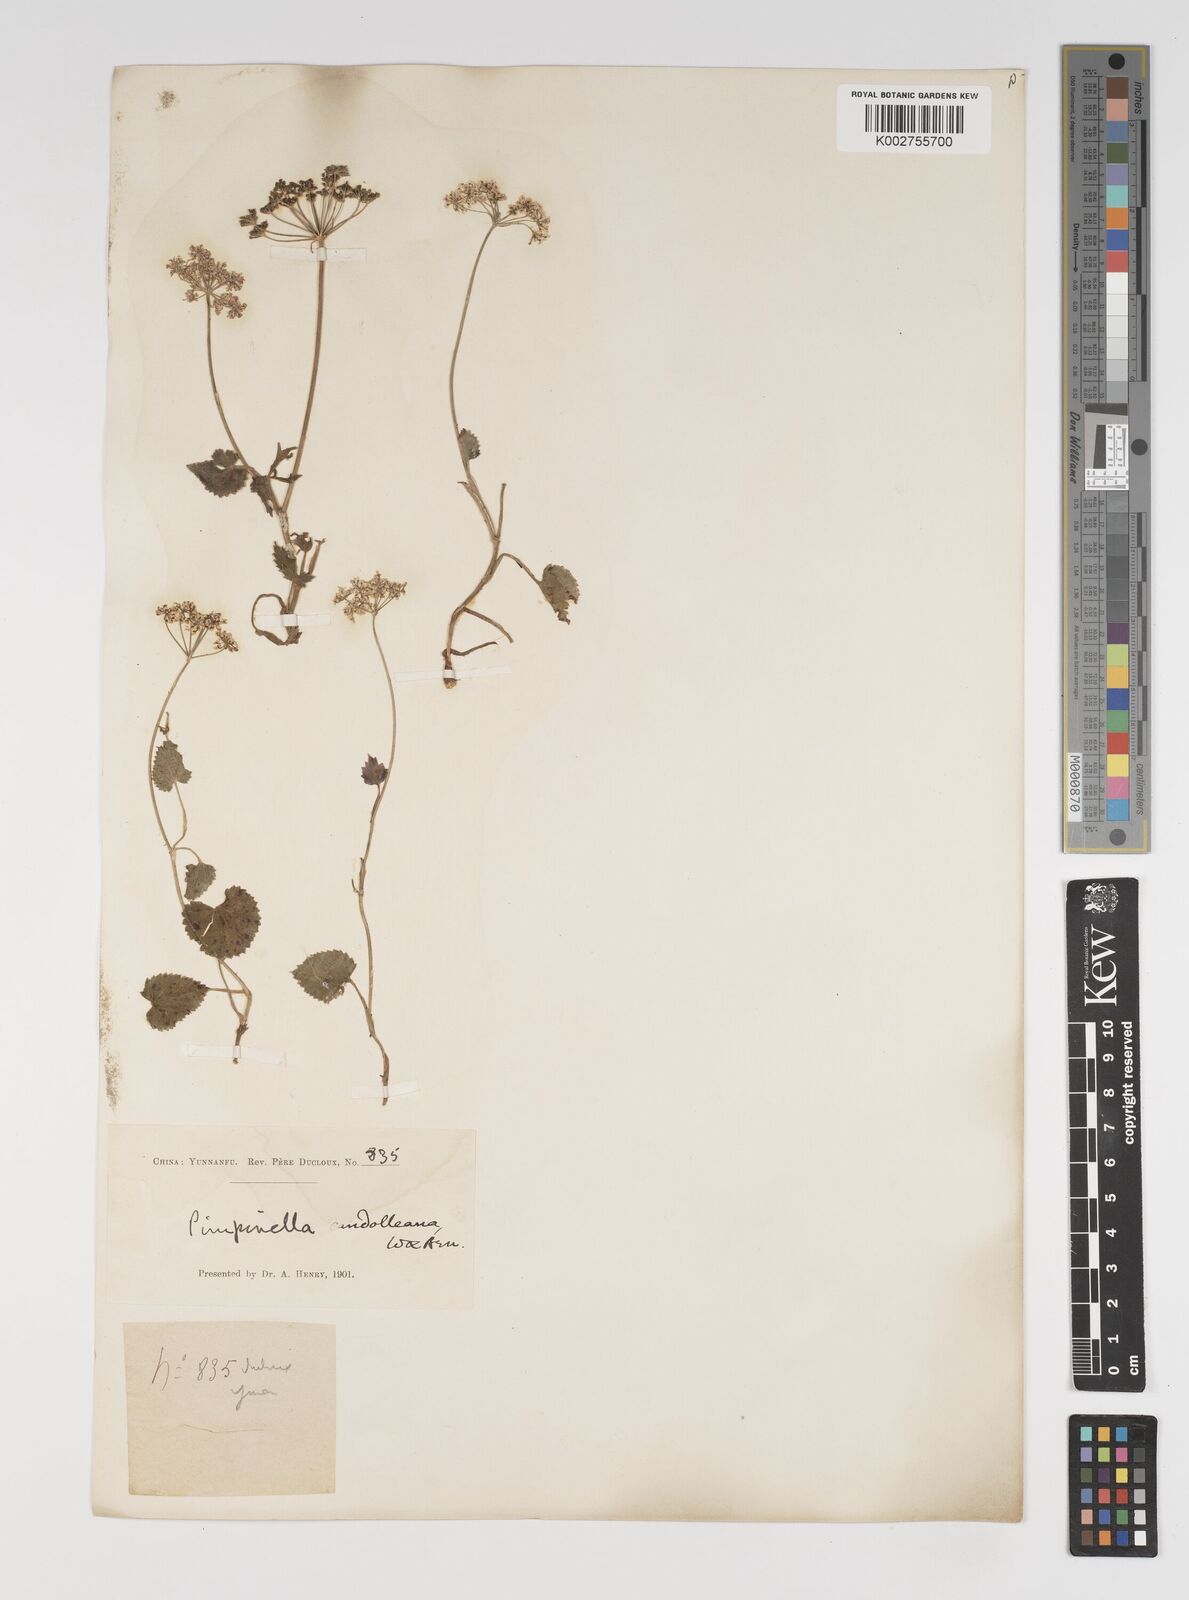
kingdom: Plantae
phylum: Tracheophyta
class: Magnoliopsida
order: Apiales
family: Apiaceae
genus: Pimpinella
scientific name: Pimpinella candolleana
